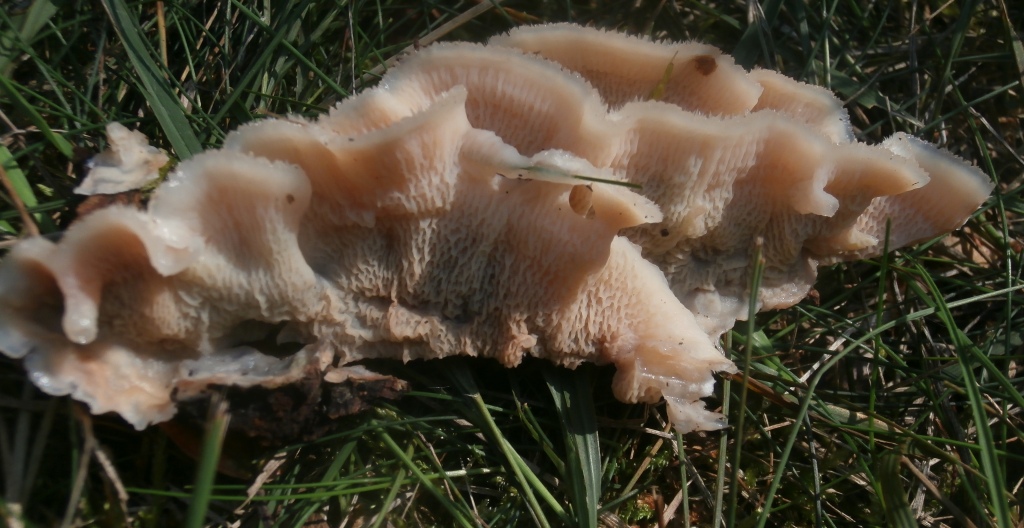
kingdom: Fungi
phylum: Basidiomycota
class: Agaricomycetes
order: Polyporales
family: Meruliaceae
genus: Phlebia
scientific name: Phlebia tremellosa
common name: bævrende åresvamp
